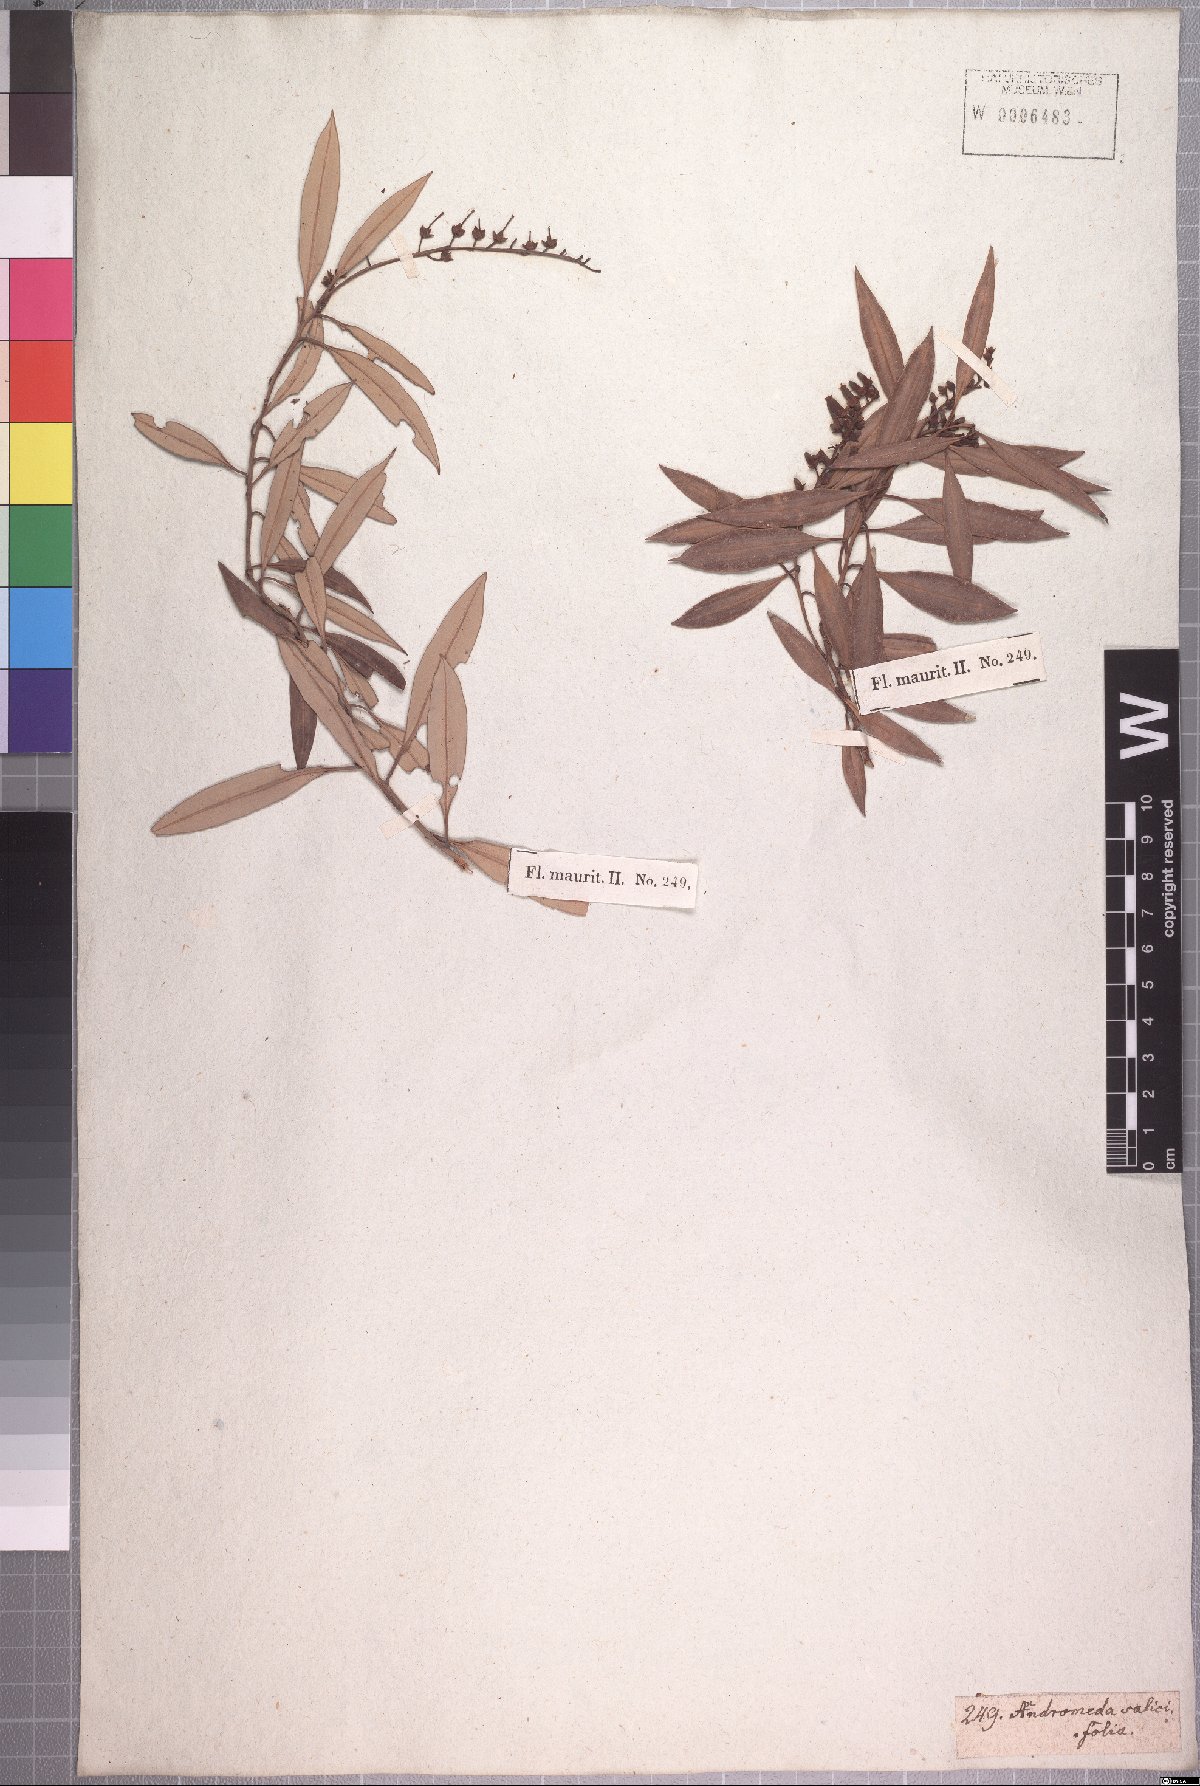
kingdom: Plantae
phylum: Tracheophyta
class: Magnoliopsida
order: Ericales
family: Ericaceae
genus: Agarista
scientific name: Agarista salicifolia
